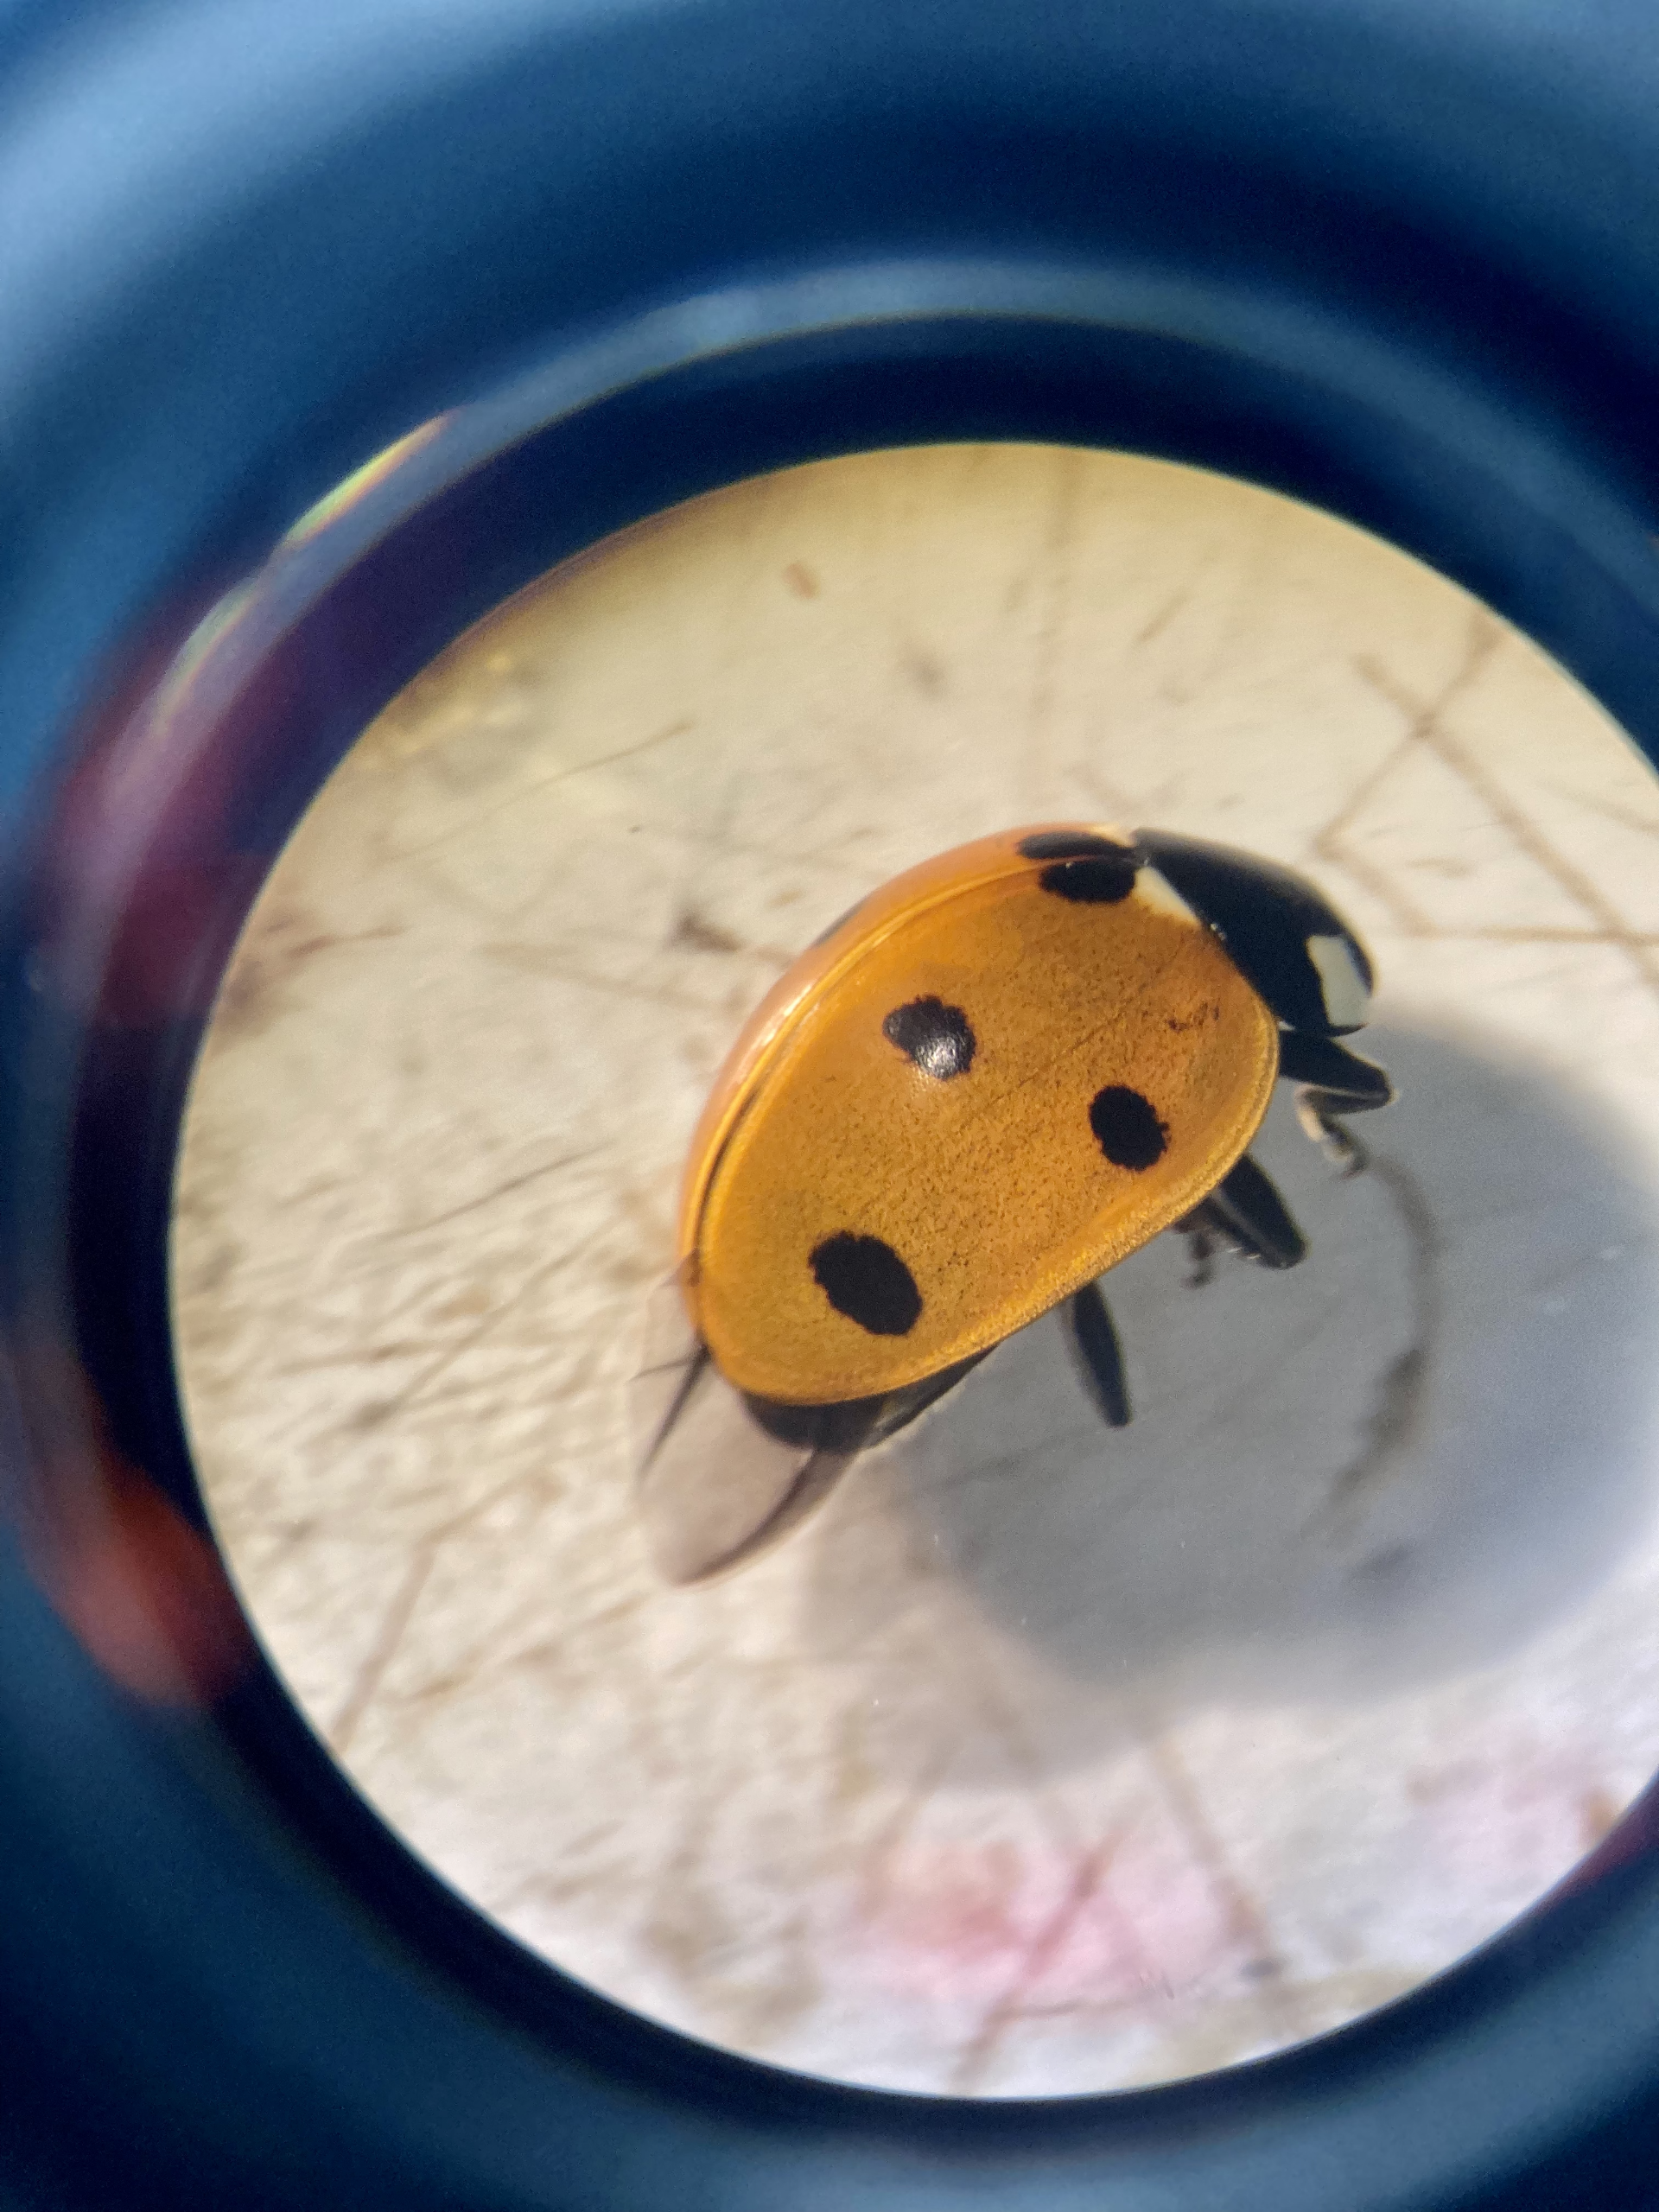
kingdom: Animalia
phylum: Arthropoda
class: Insecta
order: Coleoptera
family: Coccinellidae
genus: Coccinella
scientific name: Coccinella septempunctata
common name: Syvplettet mariehøne
